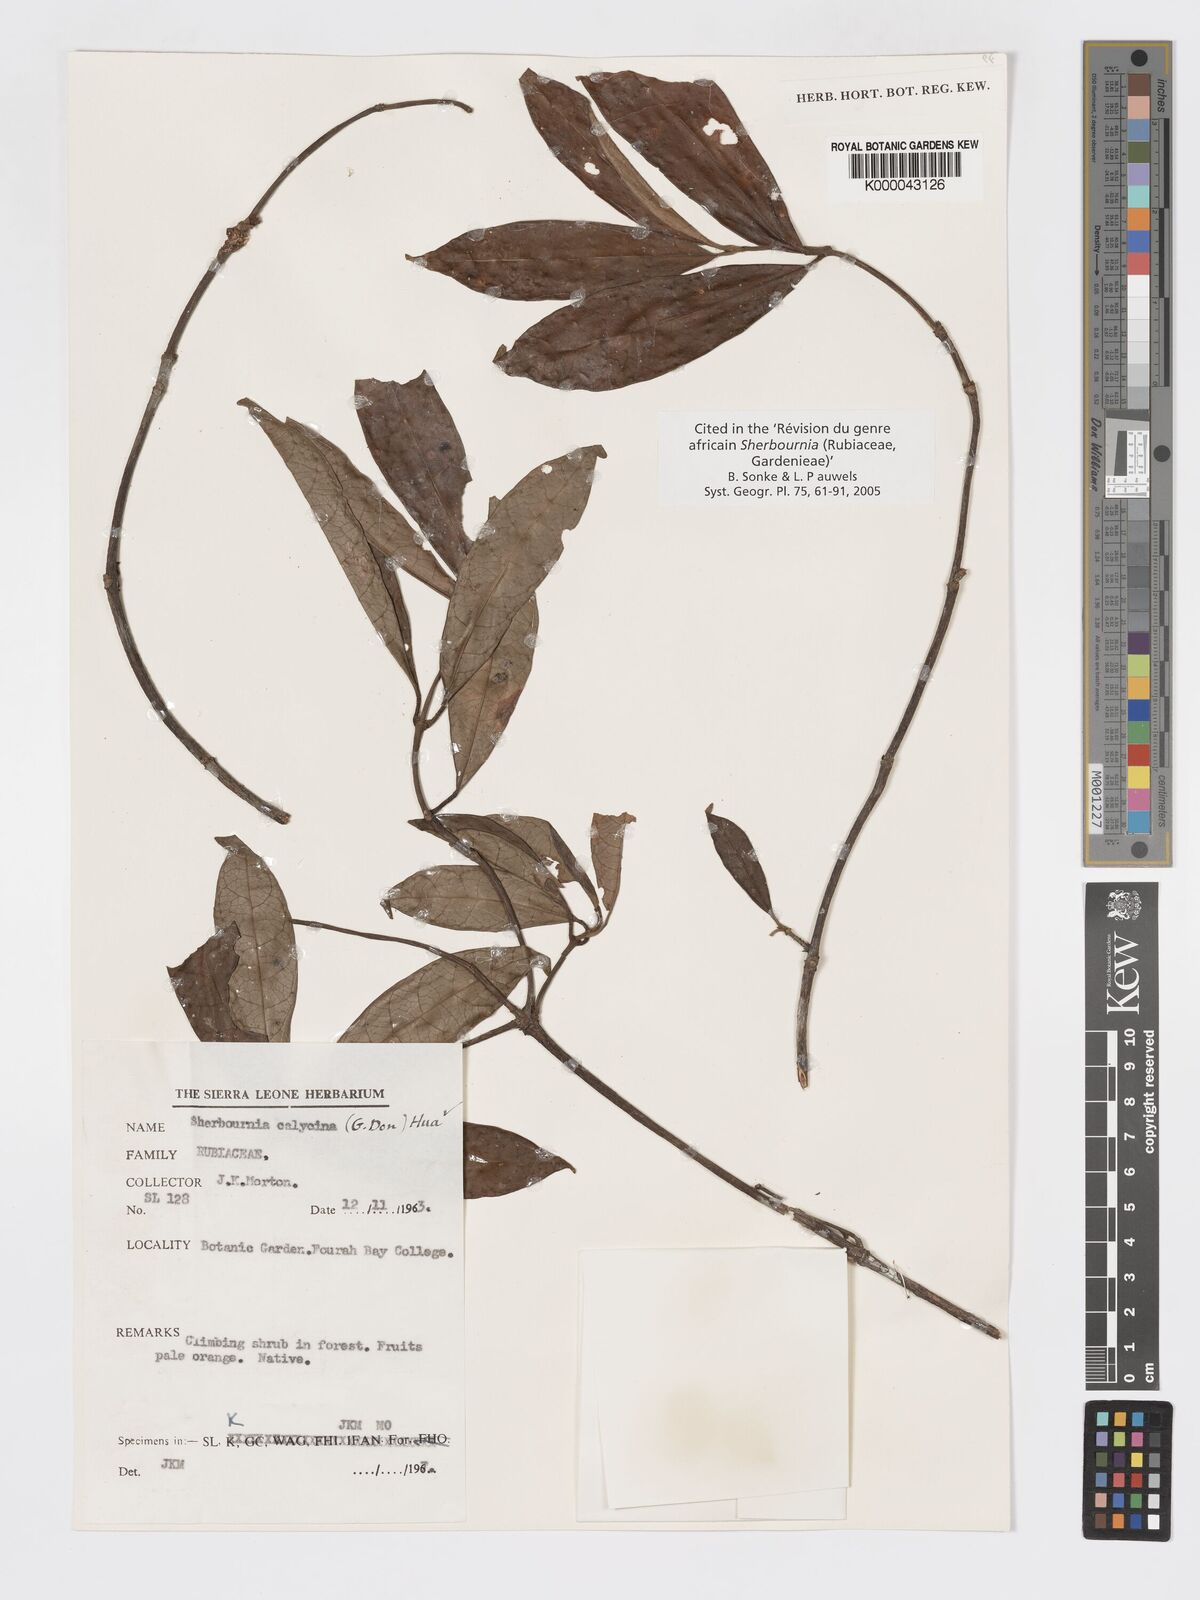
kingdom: Plantae
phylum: Tracheophyta
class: Magnoliopsida
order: Gentianales
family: Rubiaceae
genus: Sherbournia
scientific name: Sherbournia calycina
